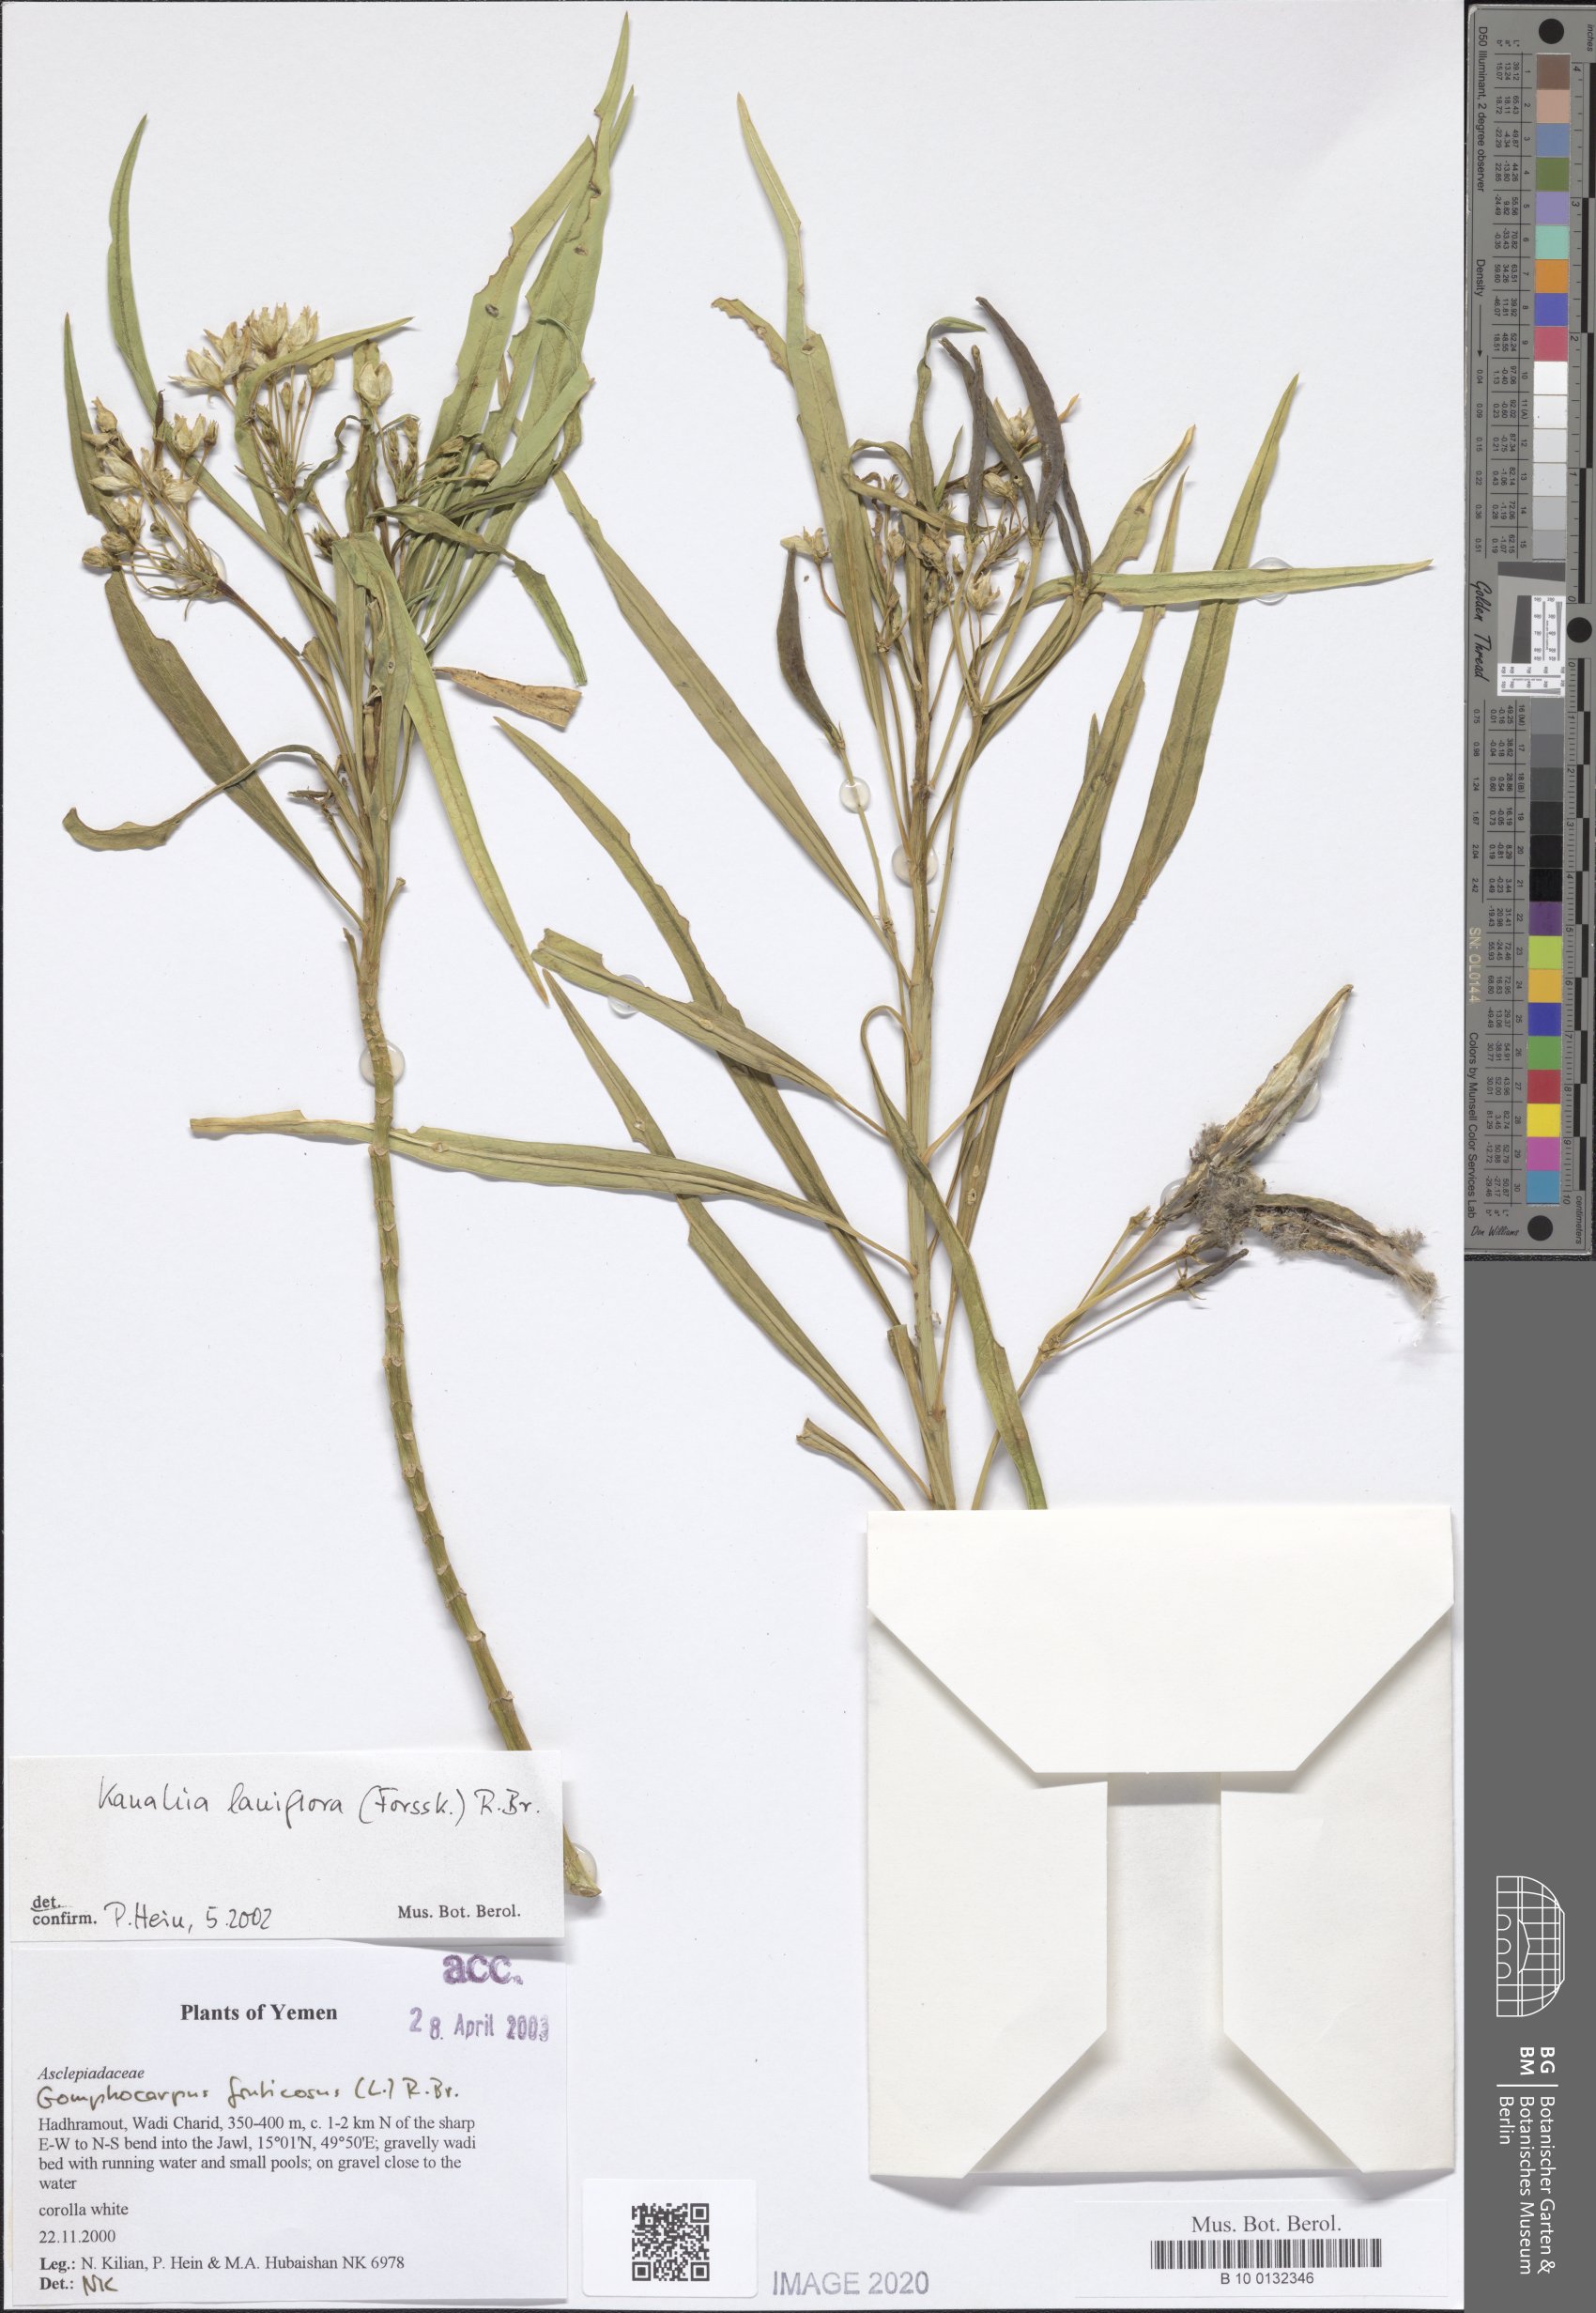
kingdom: Plantae
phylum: Tracheophyta
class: Magnoliopsida
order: Gentianales
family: Apocynaceae
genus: Kanahia
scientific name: Kanahia laniflora
